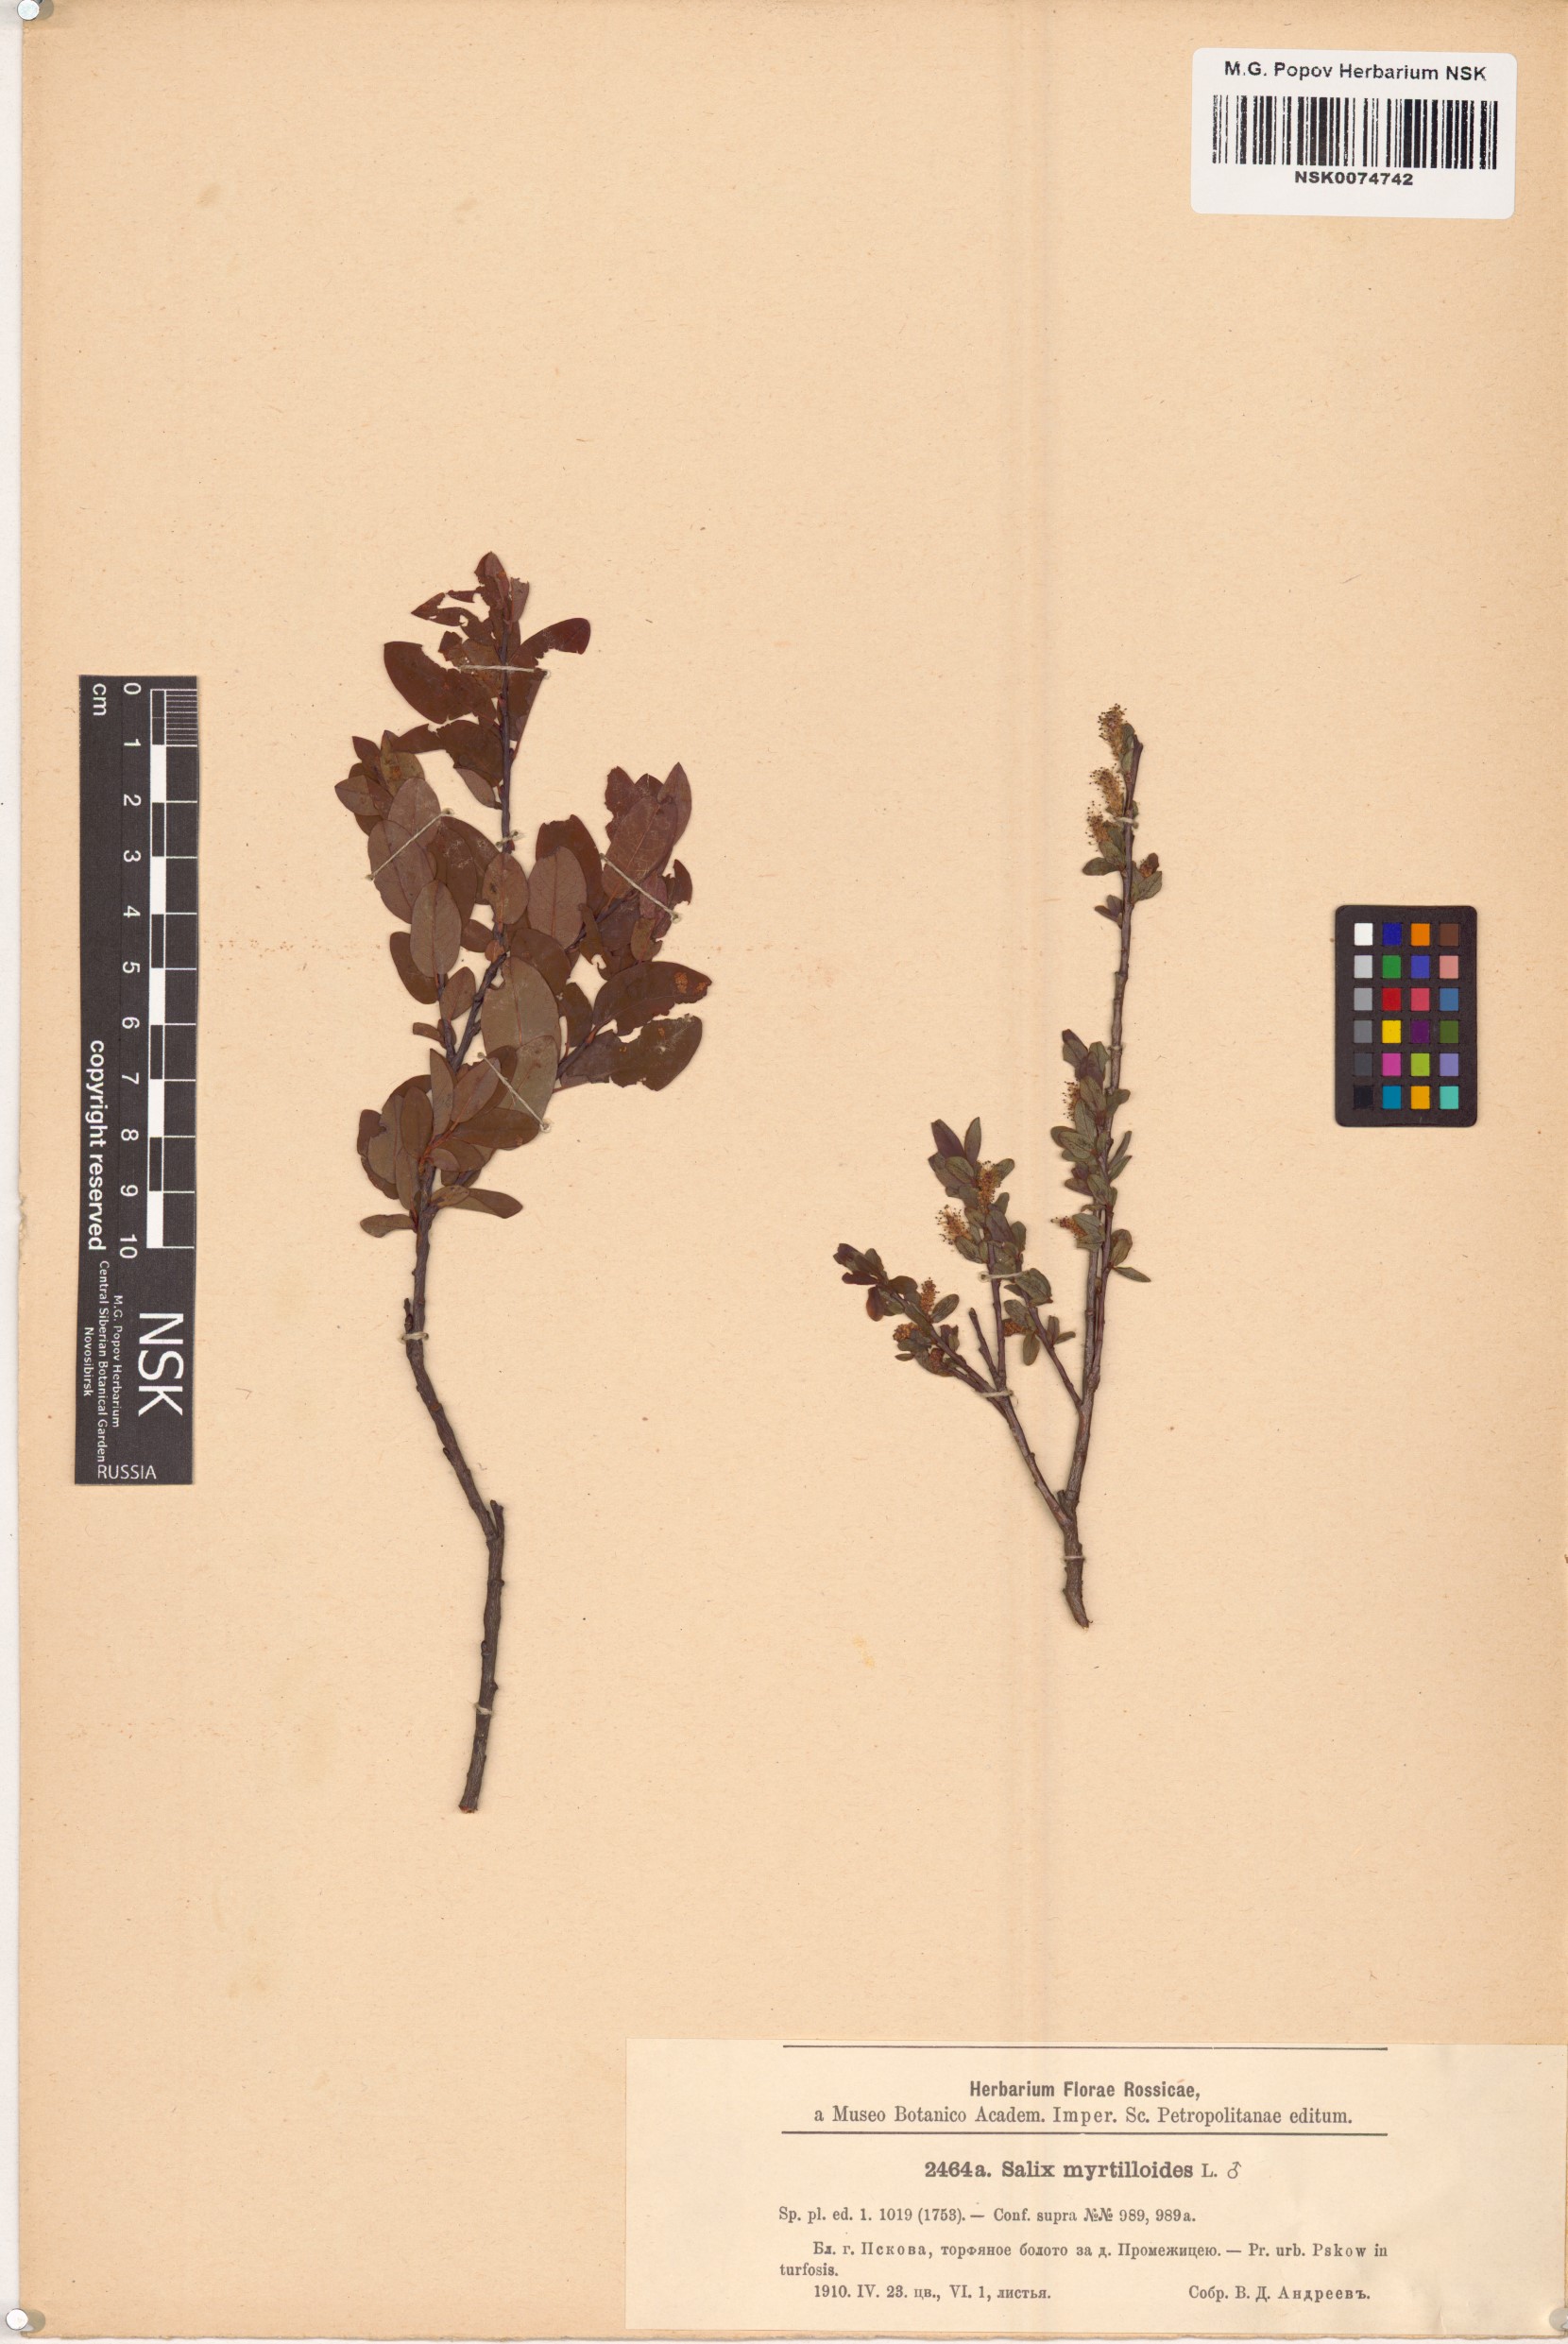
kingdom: Plantae
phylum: Tracheophyta
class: Magnoliopsida
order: Malpighiales
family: Salicaceae
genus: Salix
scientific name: Salix myrtilloides
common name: Myrtle-leaved willow
